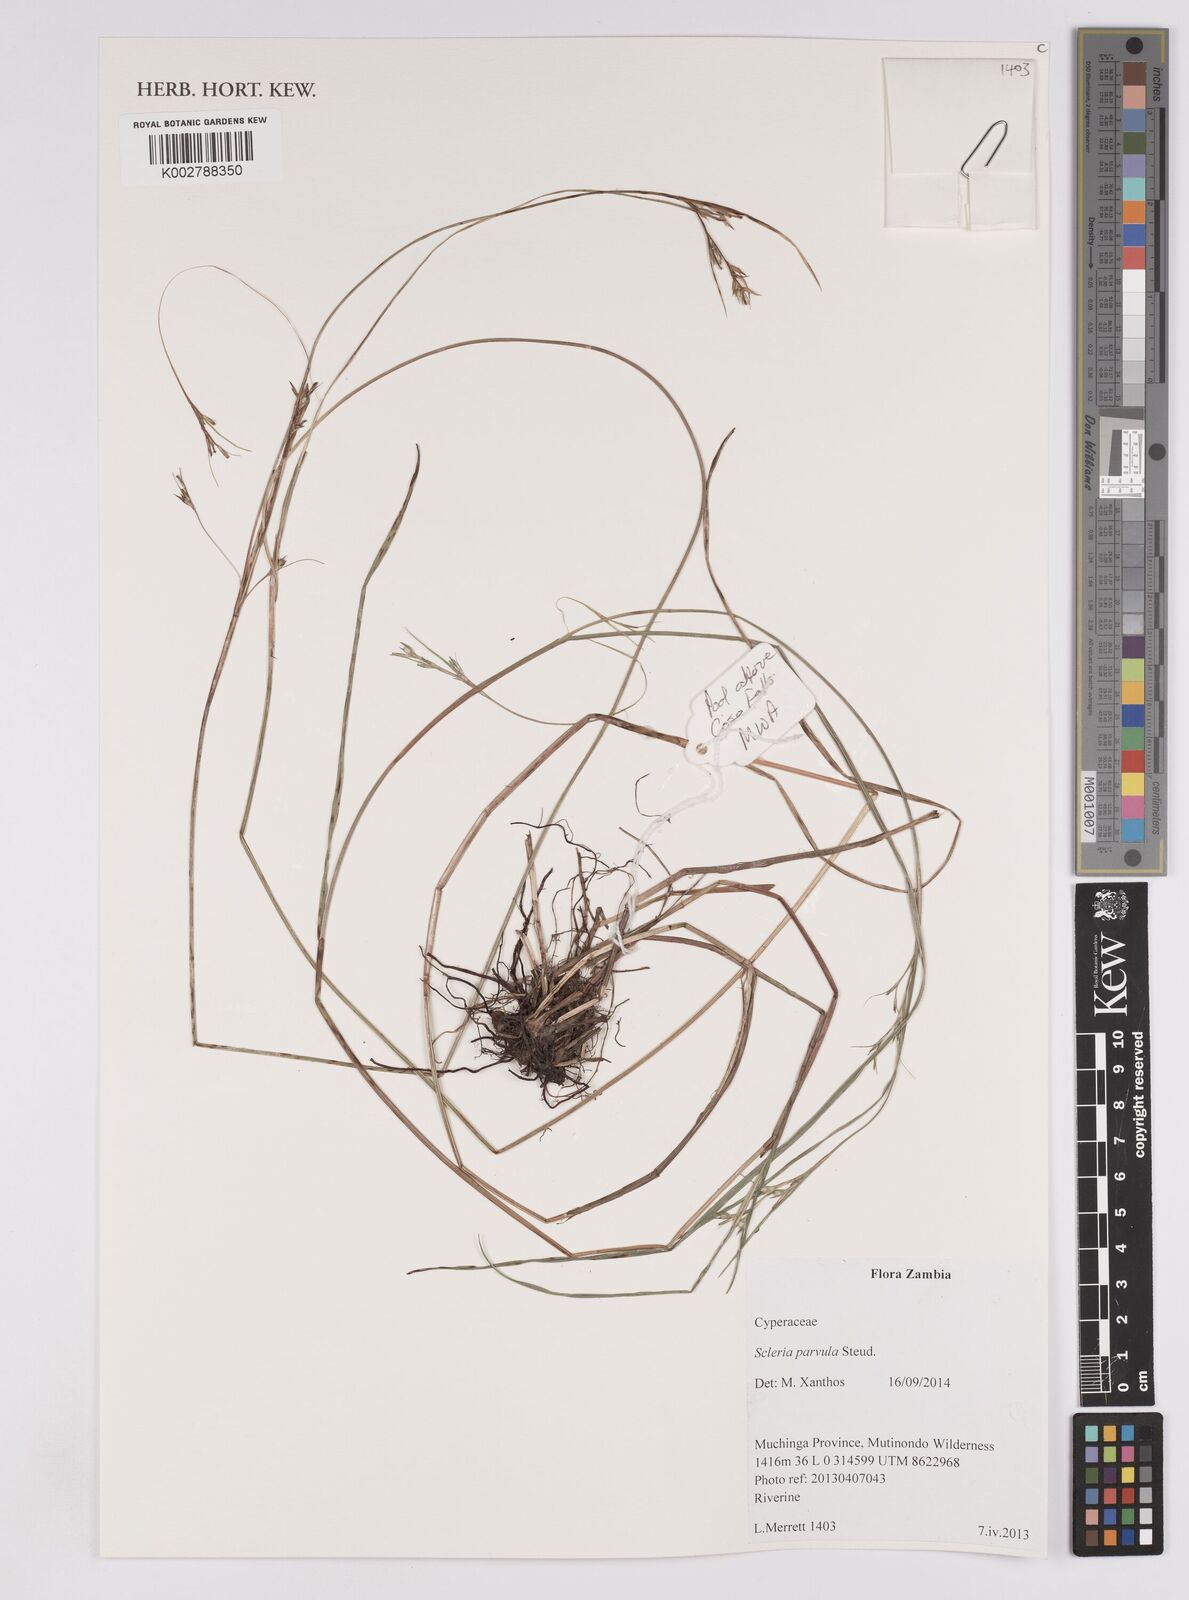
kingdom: Plantae
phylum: Tracheophyta
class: Liliopsida
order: Poales
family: Cyperaceae
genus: Scleria
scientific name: Scleria parvula
